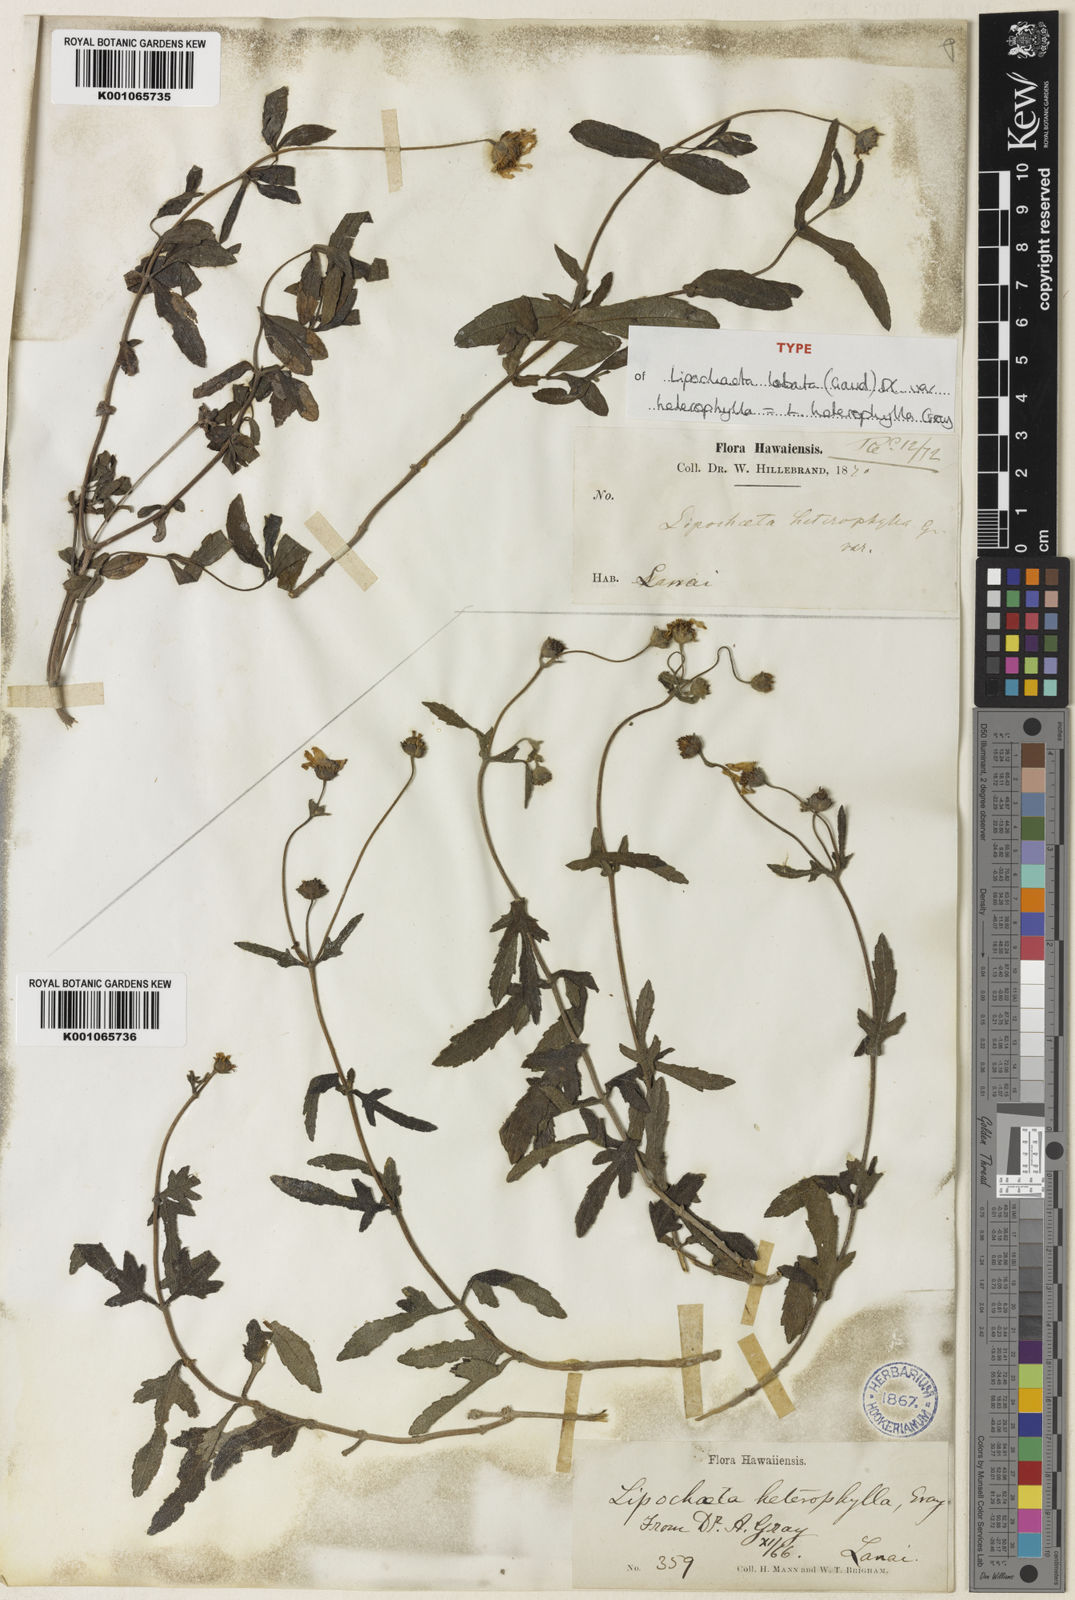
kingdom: Plantae
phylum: Tracheophyta
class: Magnoliopsida
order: Asterales
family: Asteraceae
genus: Lipochaeta
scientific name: Lipochaeta heterophylla
